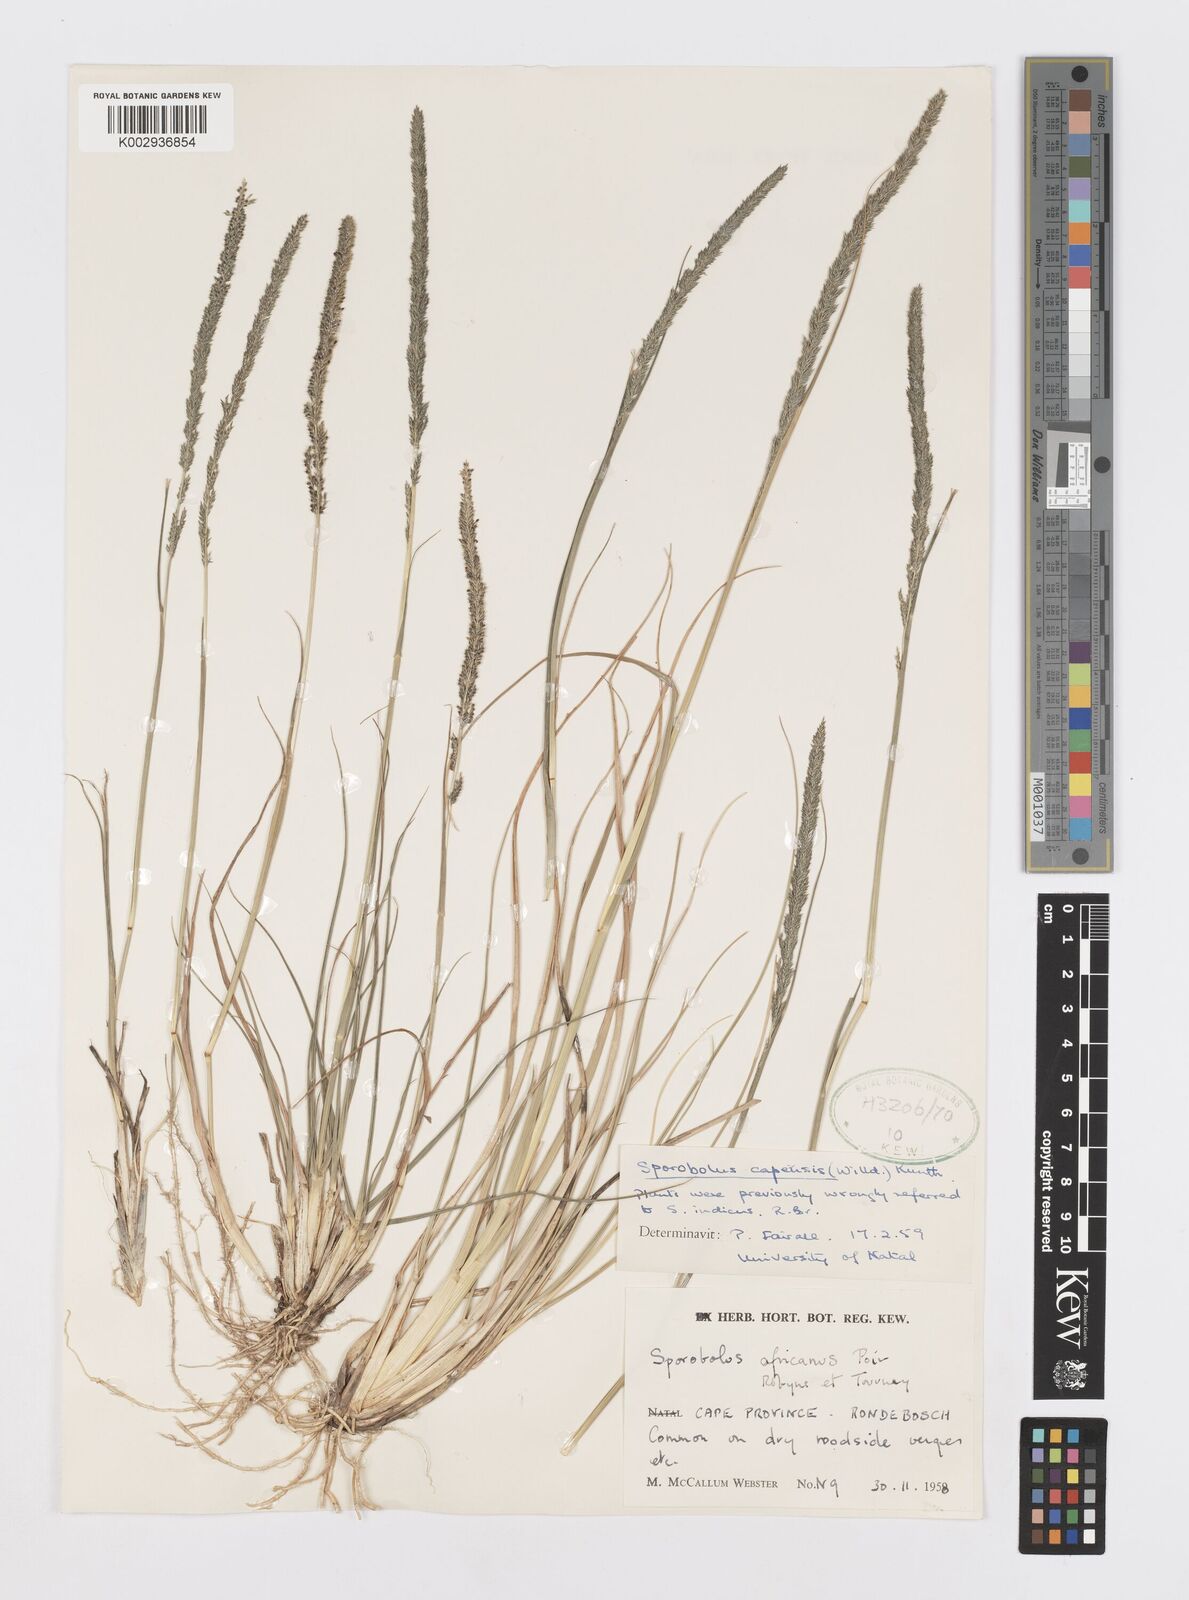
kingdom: Plantae
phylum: Tracheophyta
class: Liliopsida
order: Poales
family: Poaceae
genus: Sporobolus
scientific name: Sporobolus africanus
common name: African dropseed
